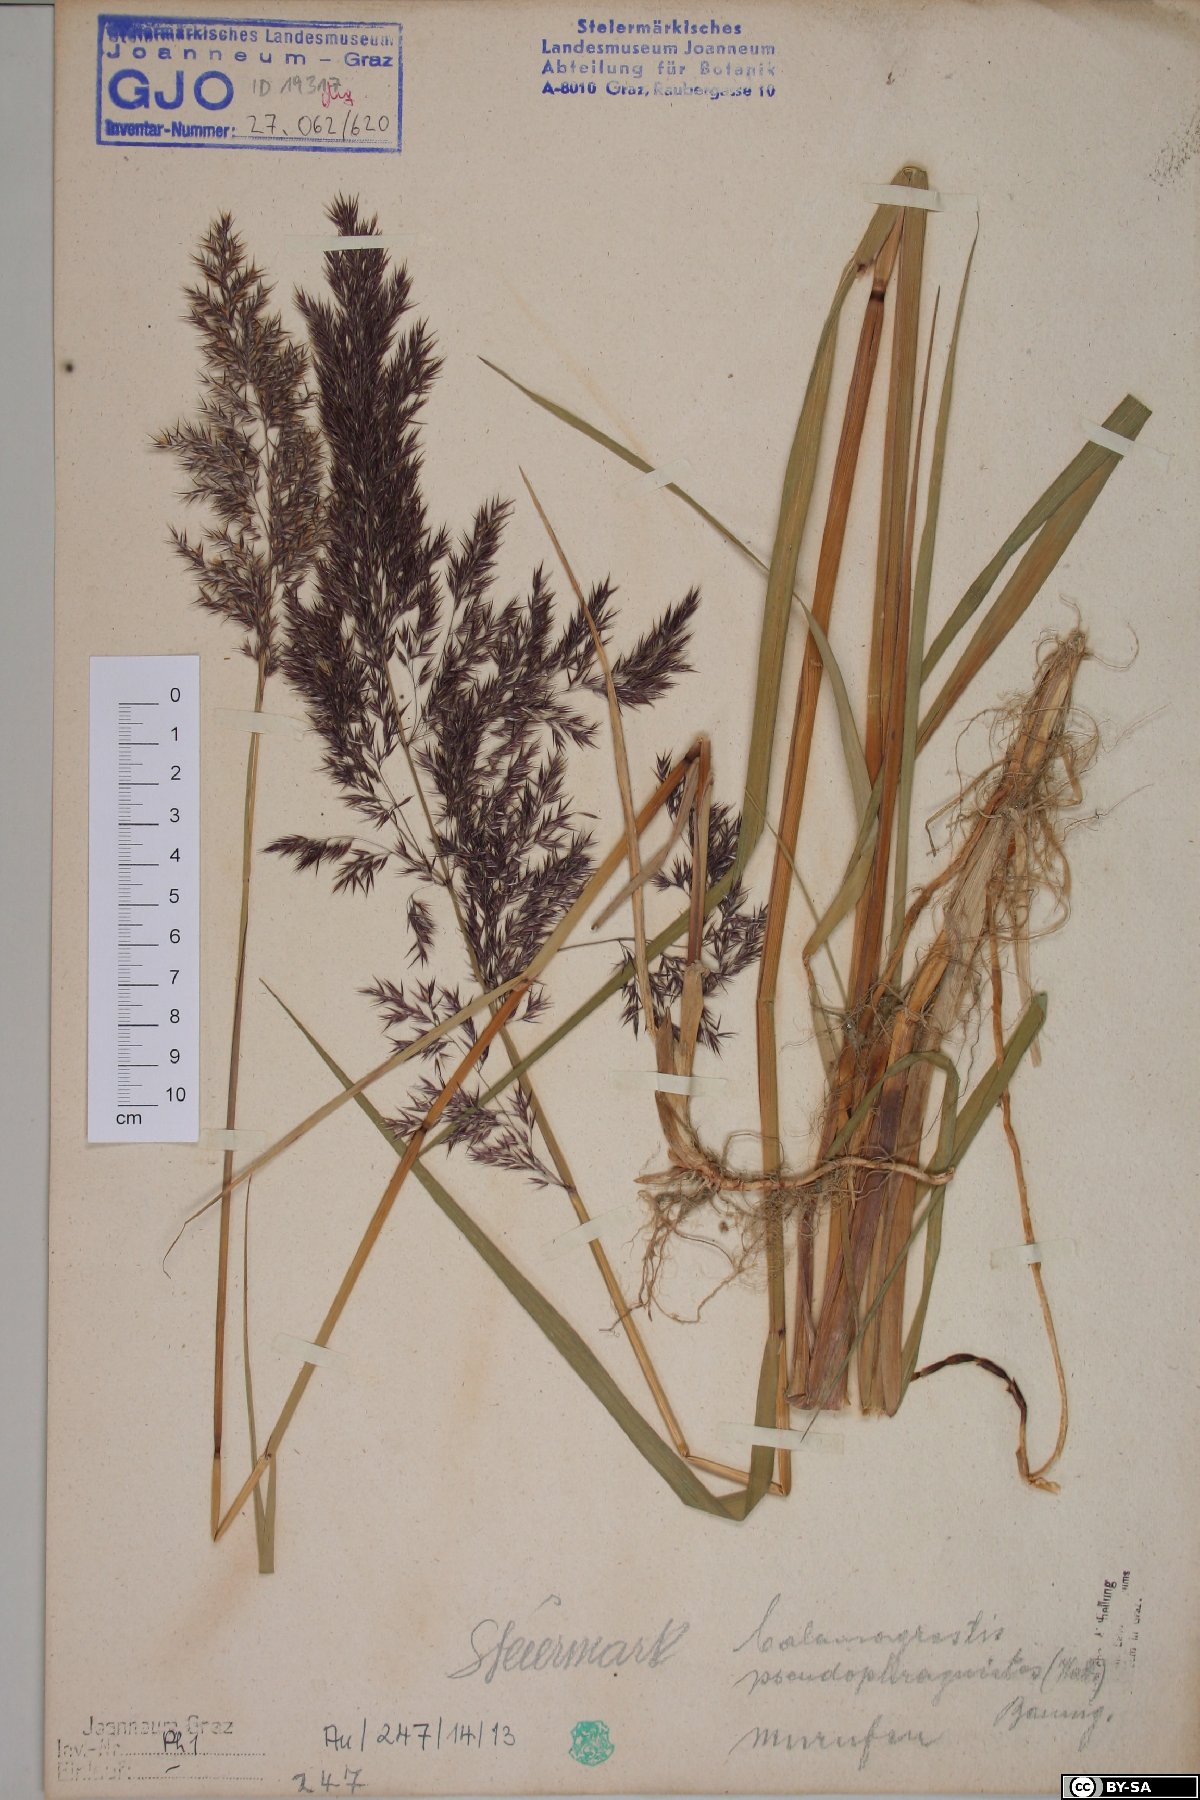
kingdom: Plantae
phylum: Tracheophyta
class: Liliopsida
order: Poales
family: Poaceae
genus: Calamagrostis
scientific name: Calamagrostis pseudophragmites
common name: Coastal small-reed
